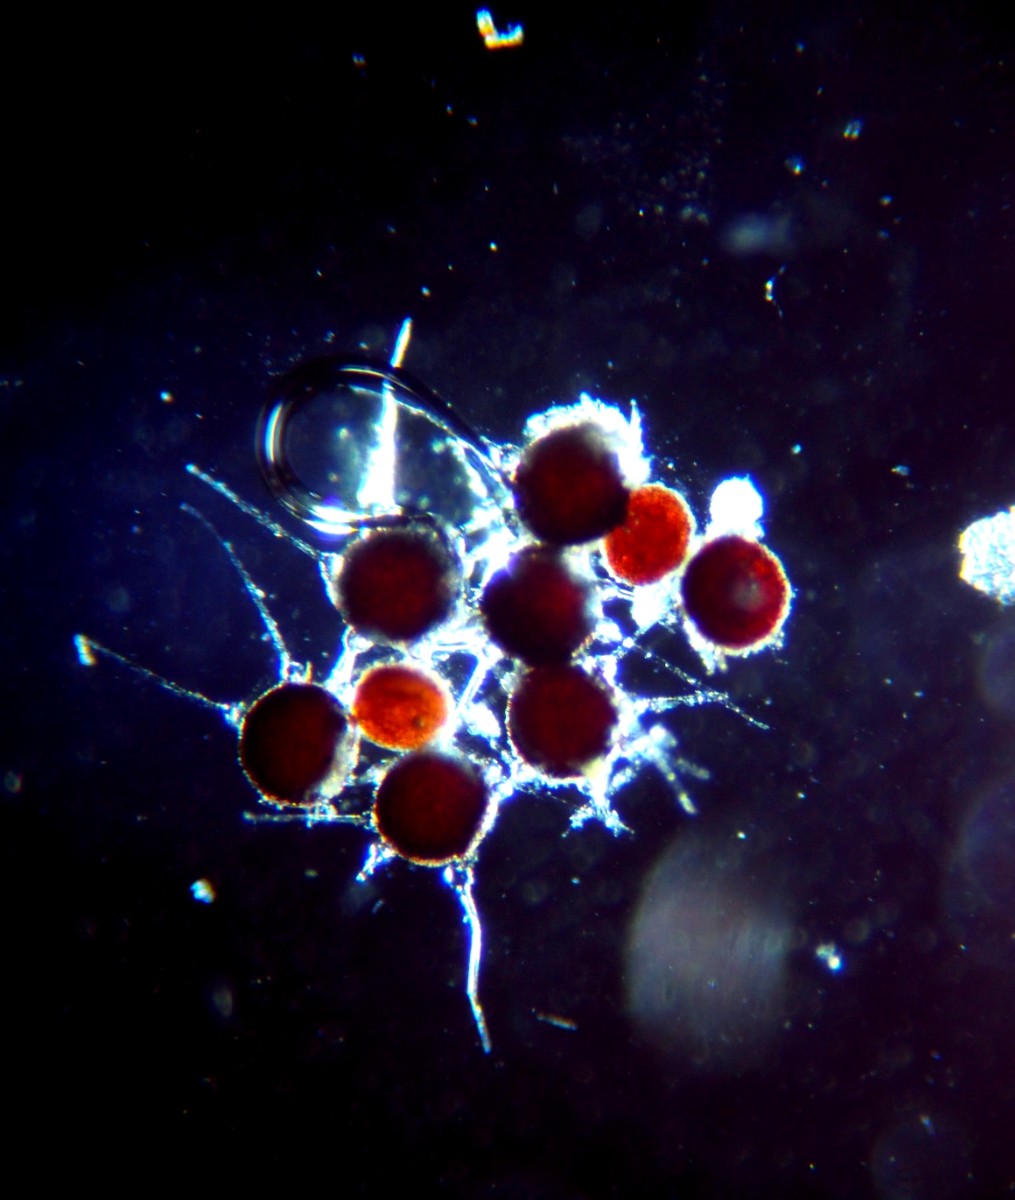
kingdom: Fungi
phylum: Ascomycota
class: Leotiomycetes
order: Helotiales
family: Erysiphaceae
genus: Phyllactinia
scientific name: Phyllactinia guttata
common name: hassel-meldug
